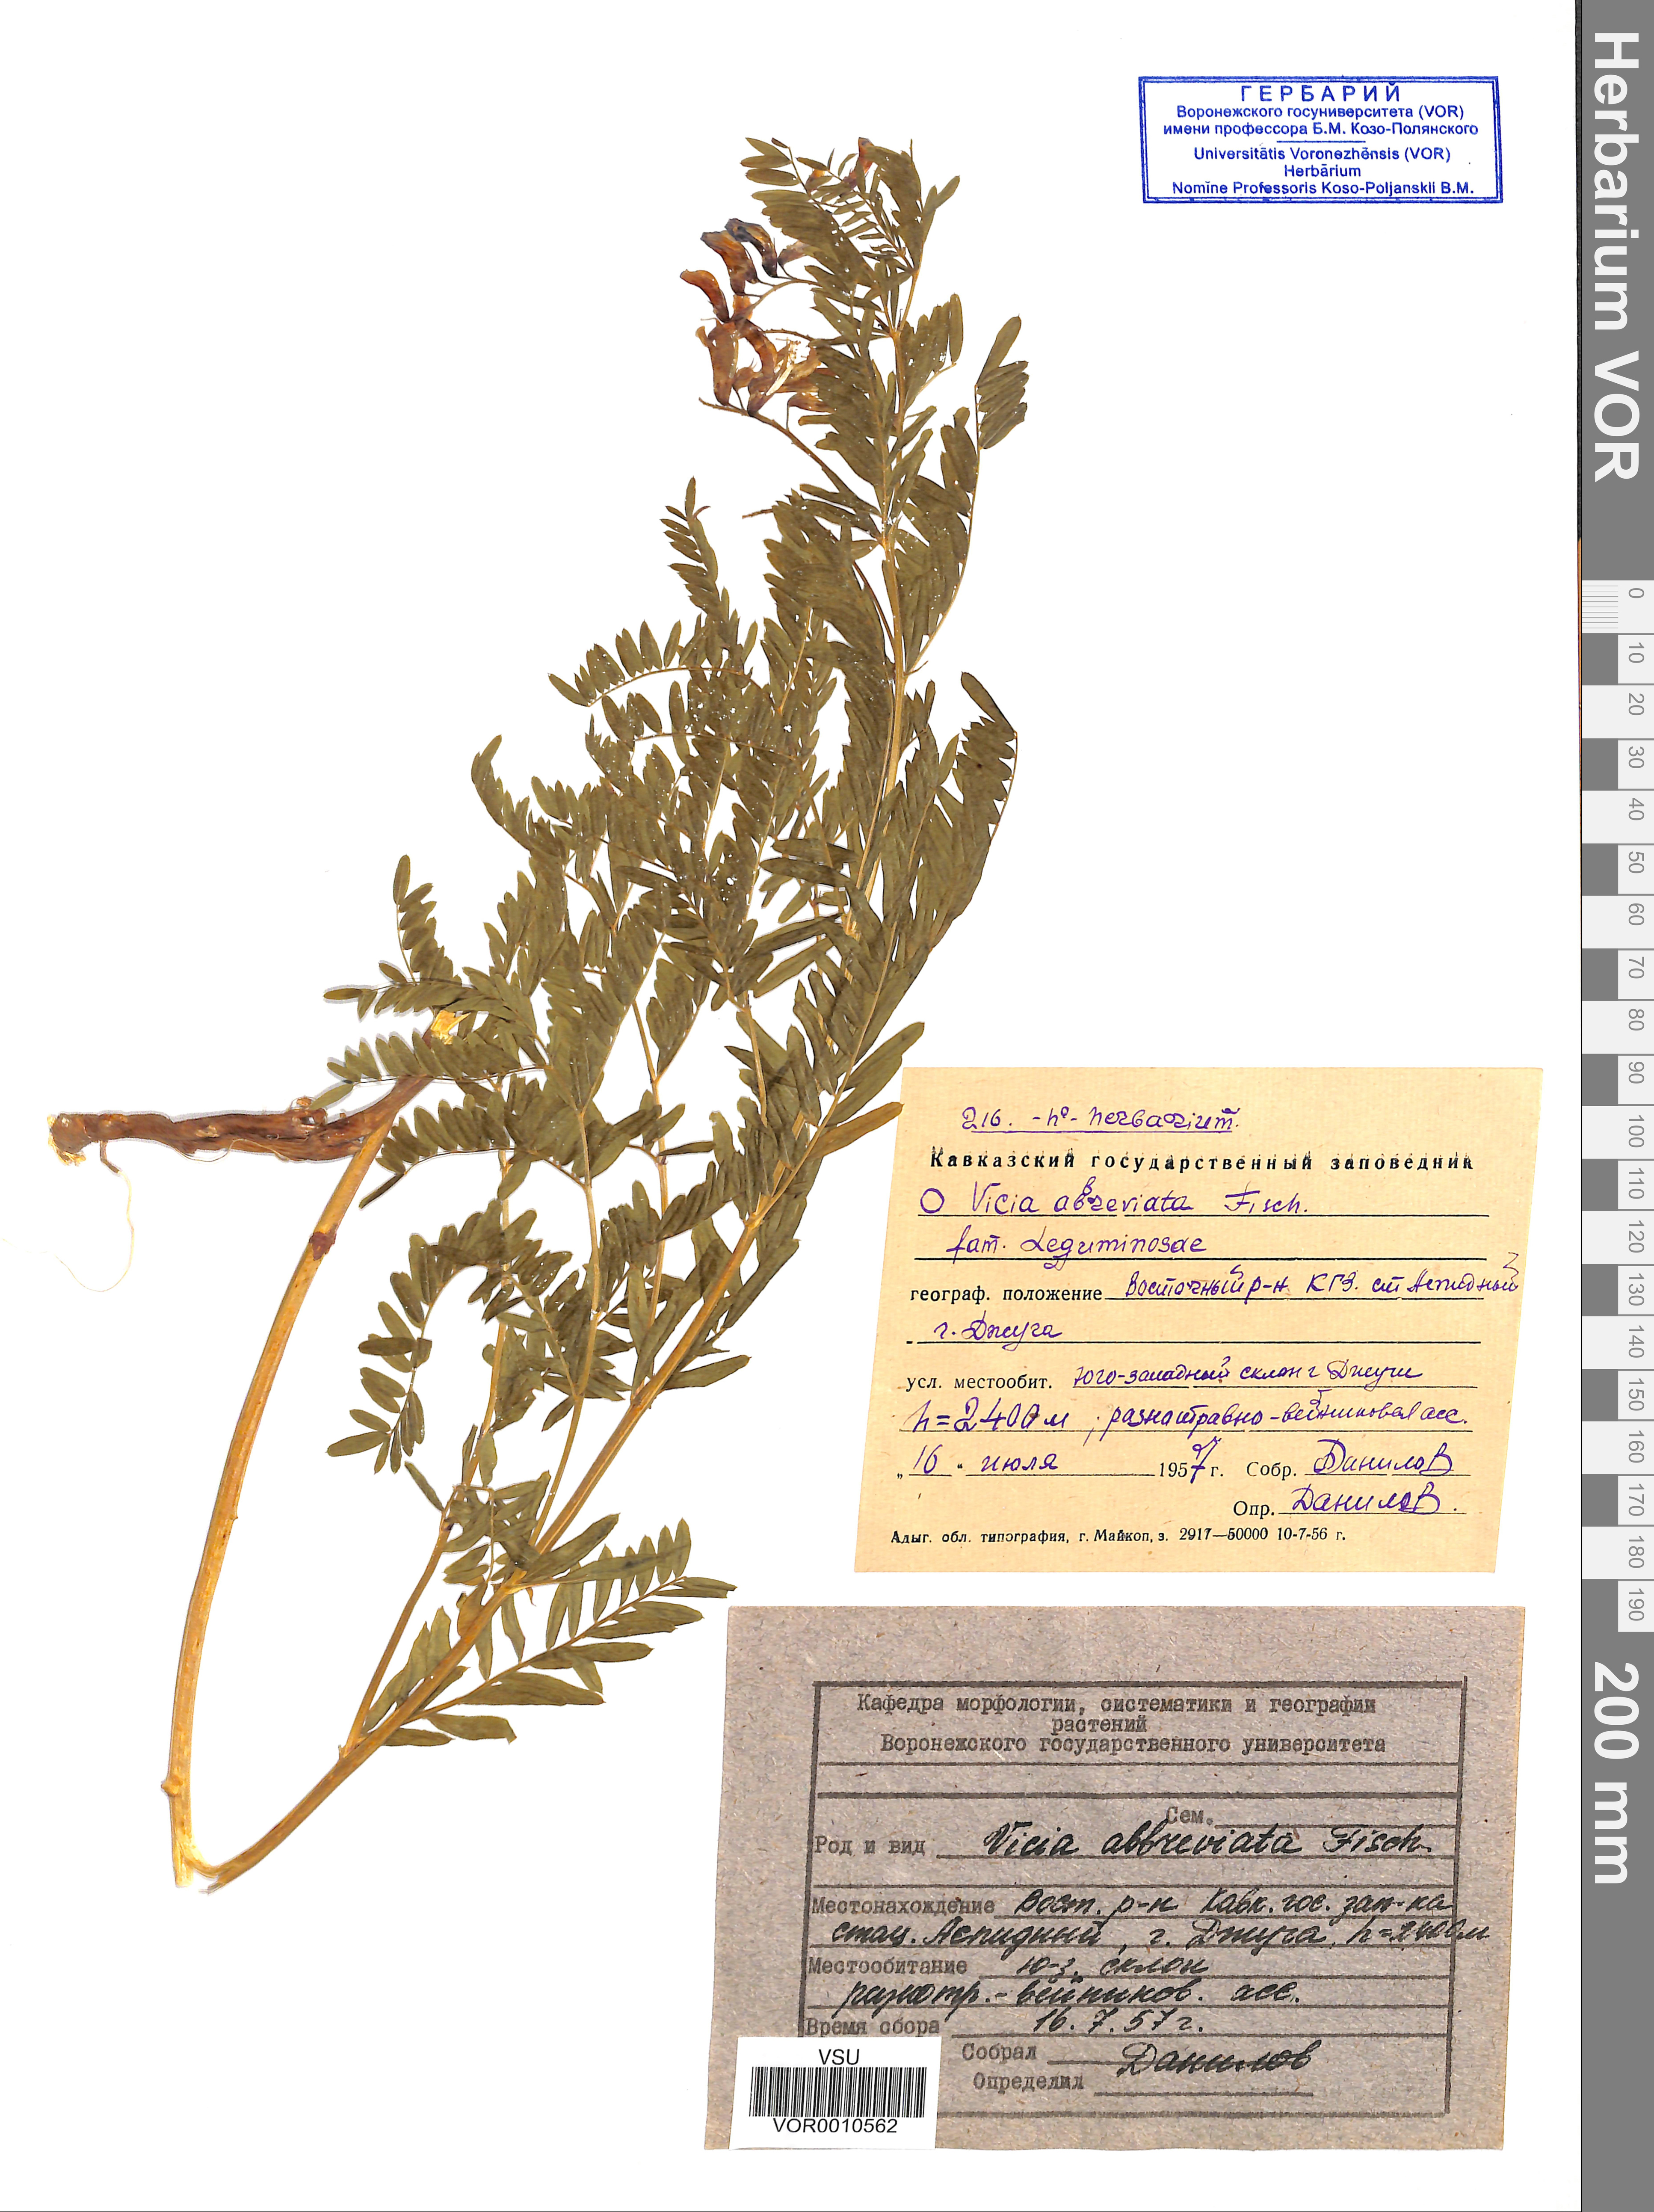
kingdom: Plantae
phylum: Tracheophyta
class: Magnoliopsida
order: Fabales
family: Fabaceae
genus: Vicia
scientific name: Vicia abbreviata
